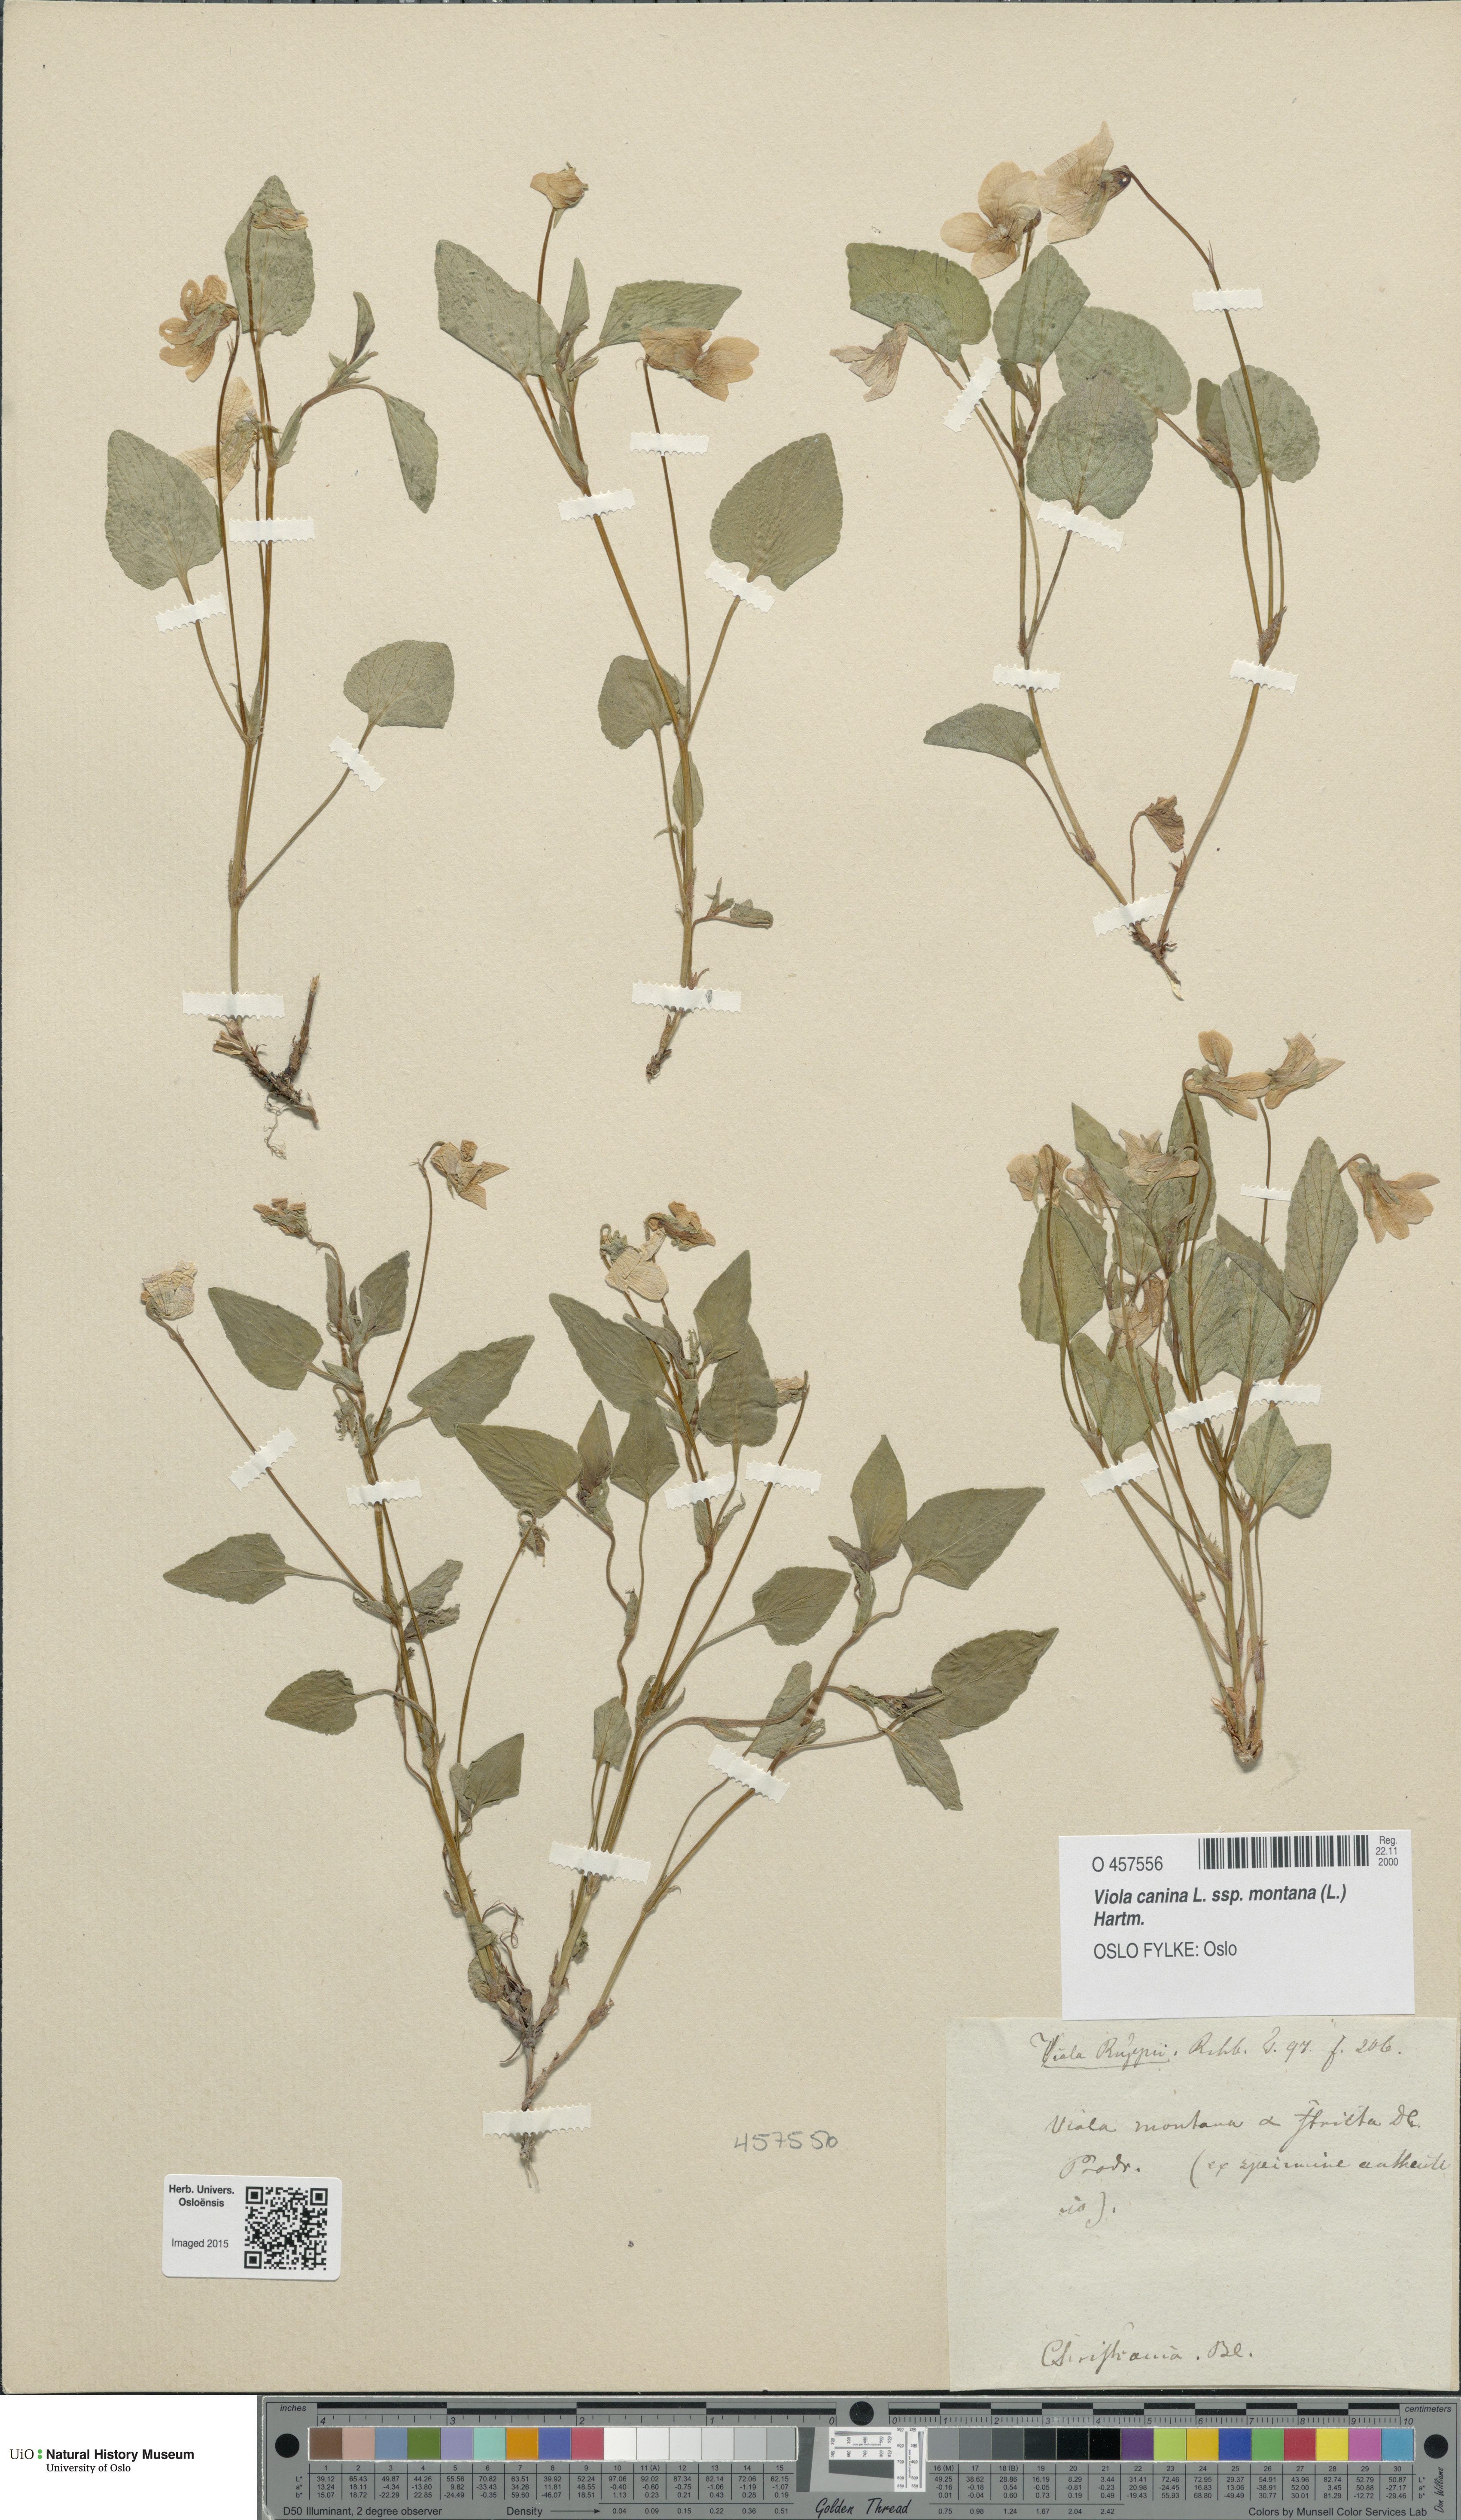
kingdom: Plantae
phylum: Tracheophyta
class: Magnoliopsida
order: Malpighiales
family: Violaceae
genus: Viola
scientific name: Viola ruppii
